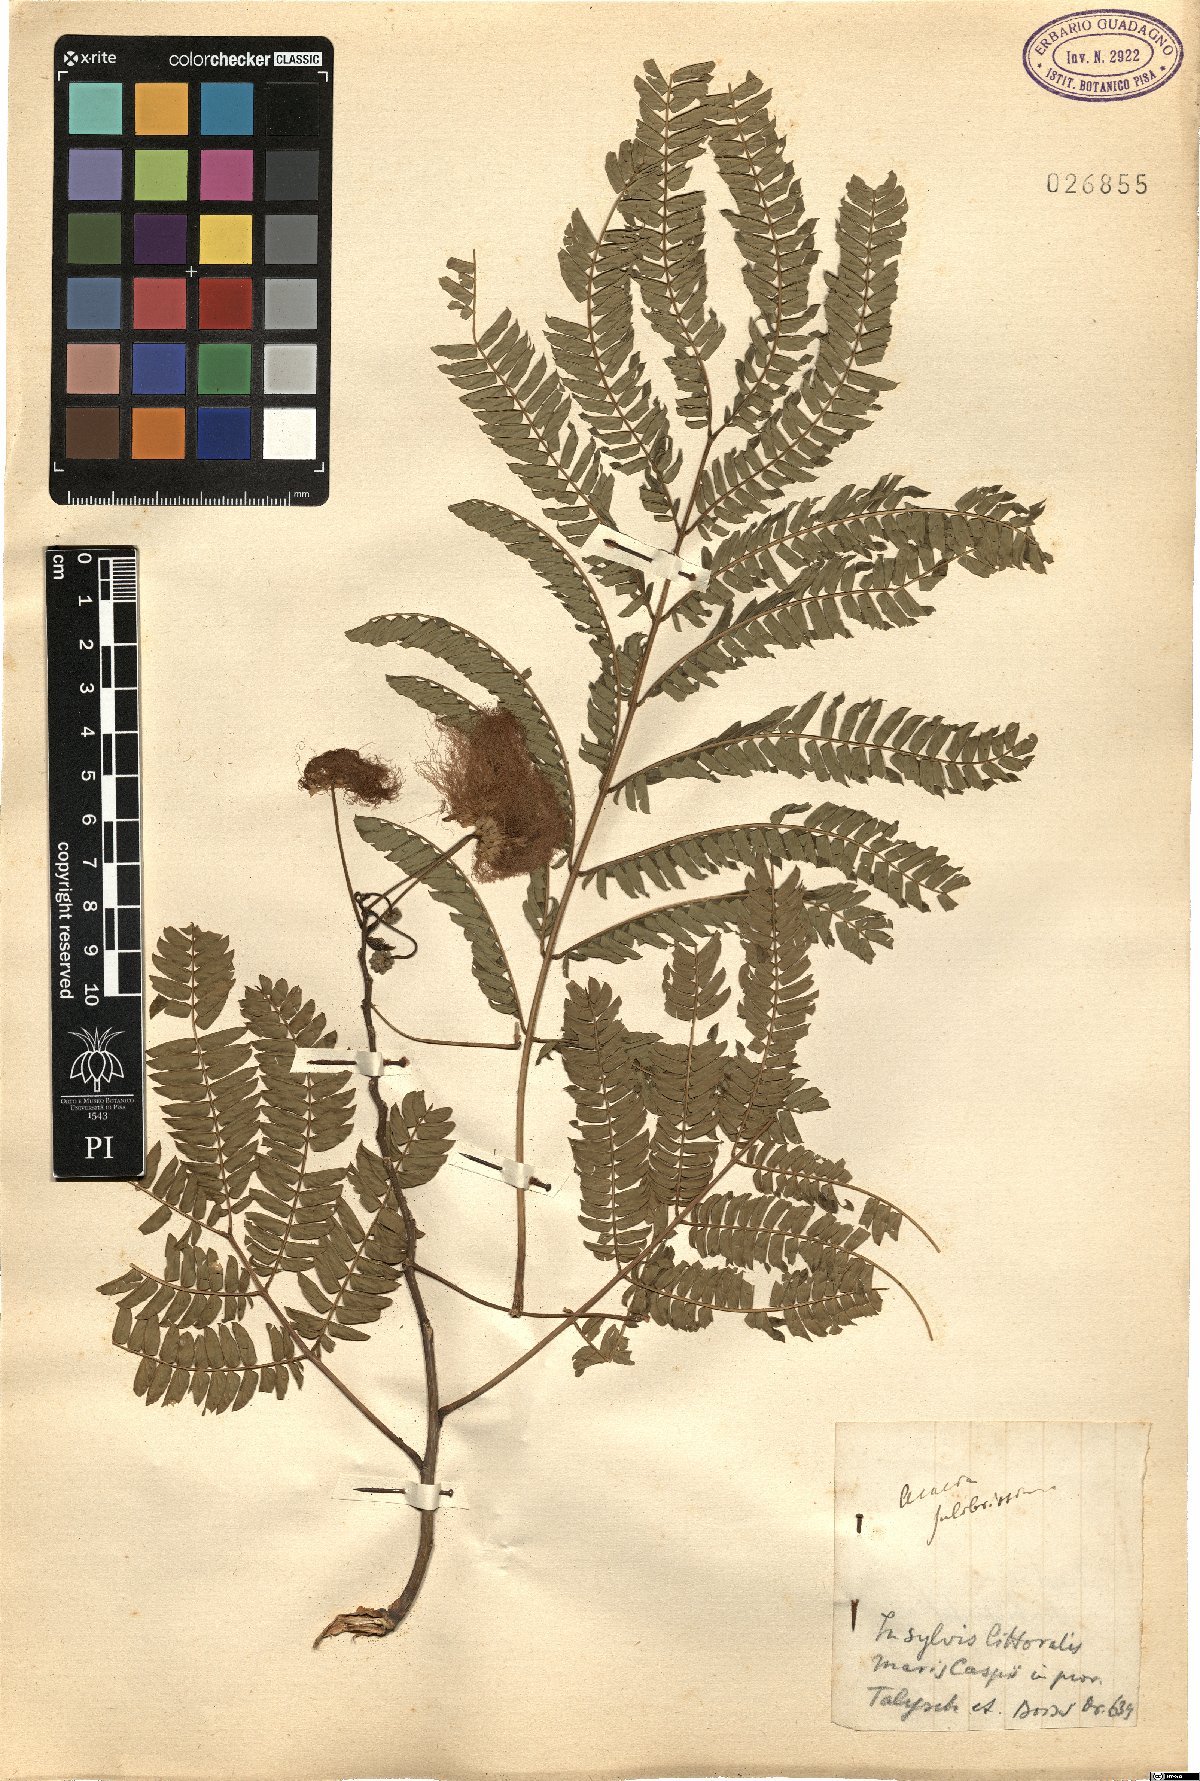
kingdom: Plantae
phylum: Tracheophyta
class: Magnoliopsida
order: Fabales
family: Fabaceae
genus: Albizia
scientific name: Albizia julibrissin
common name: Silktree
